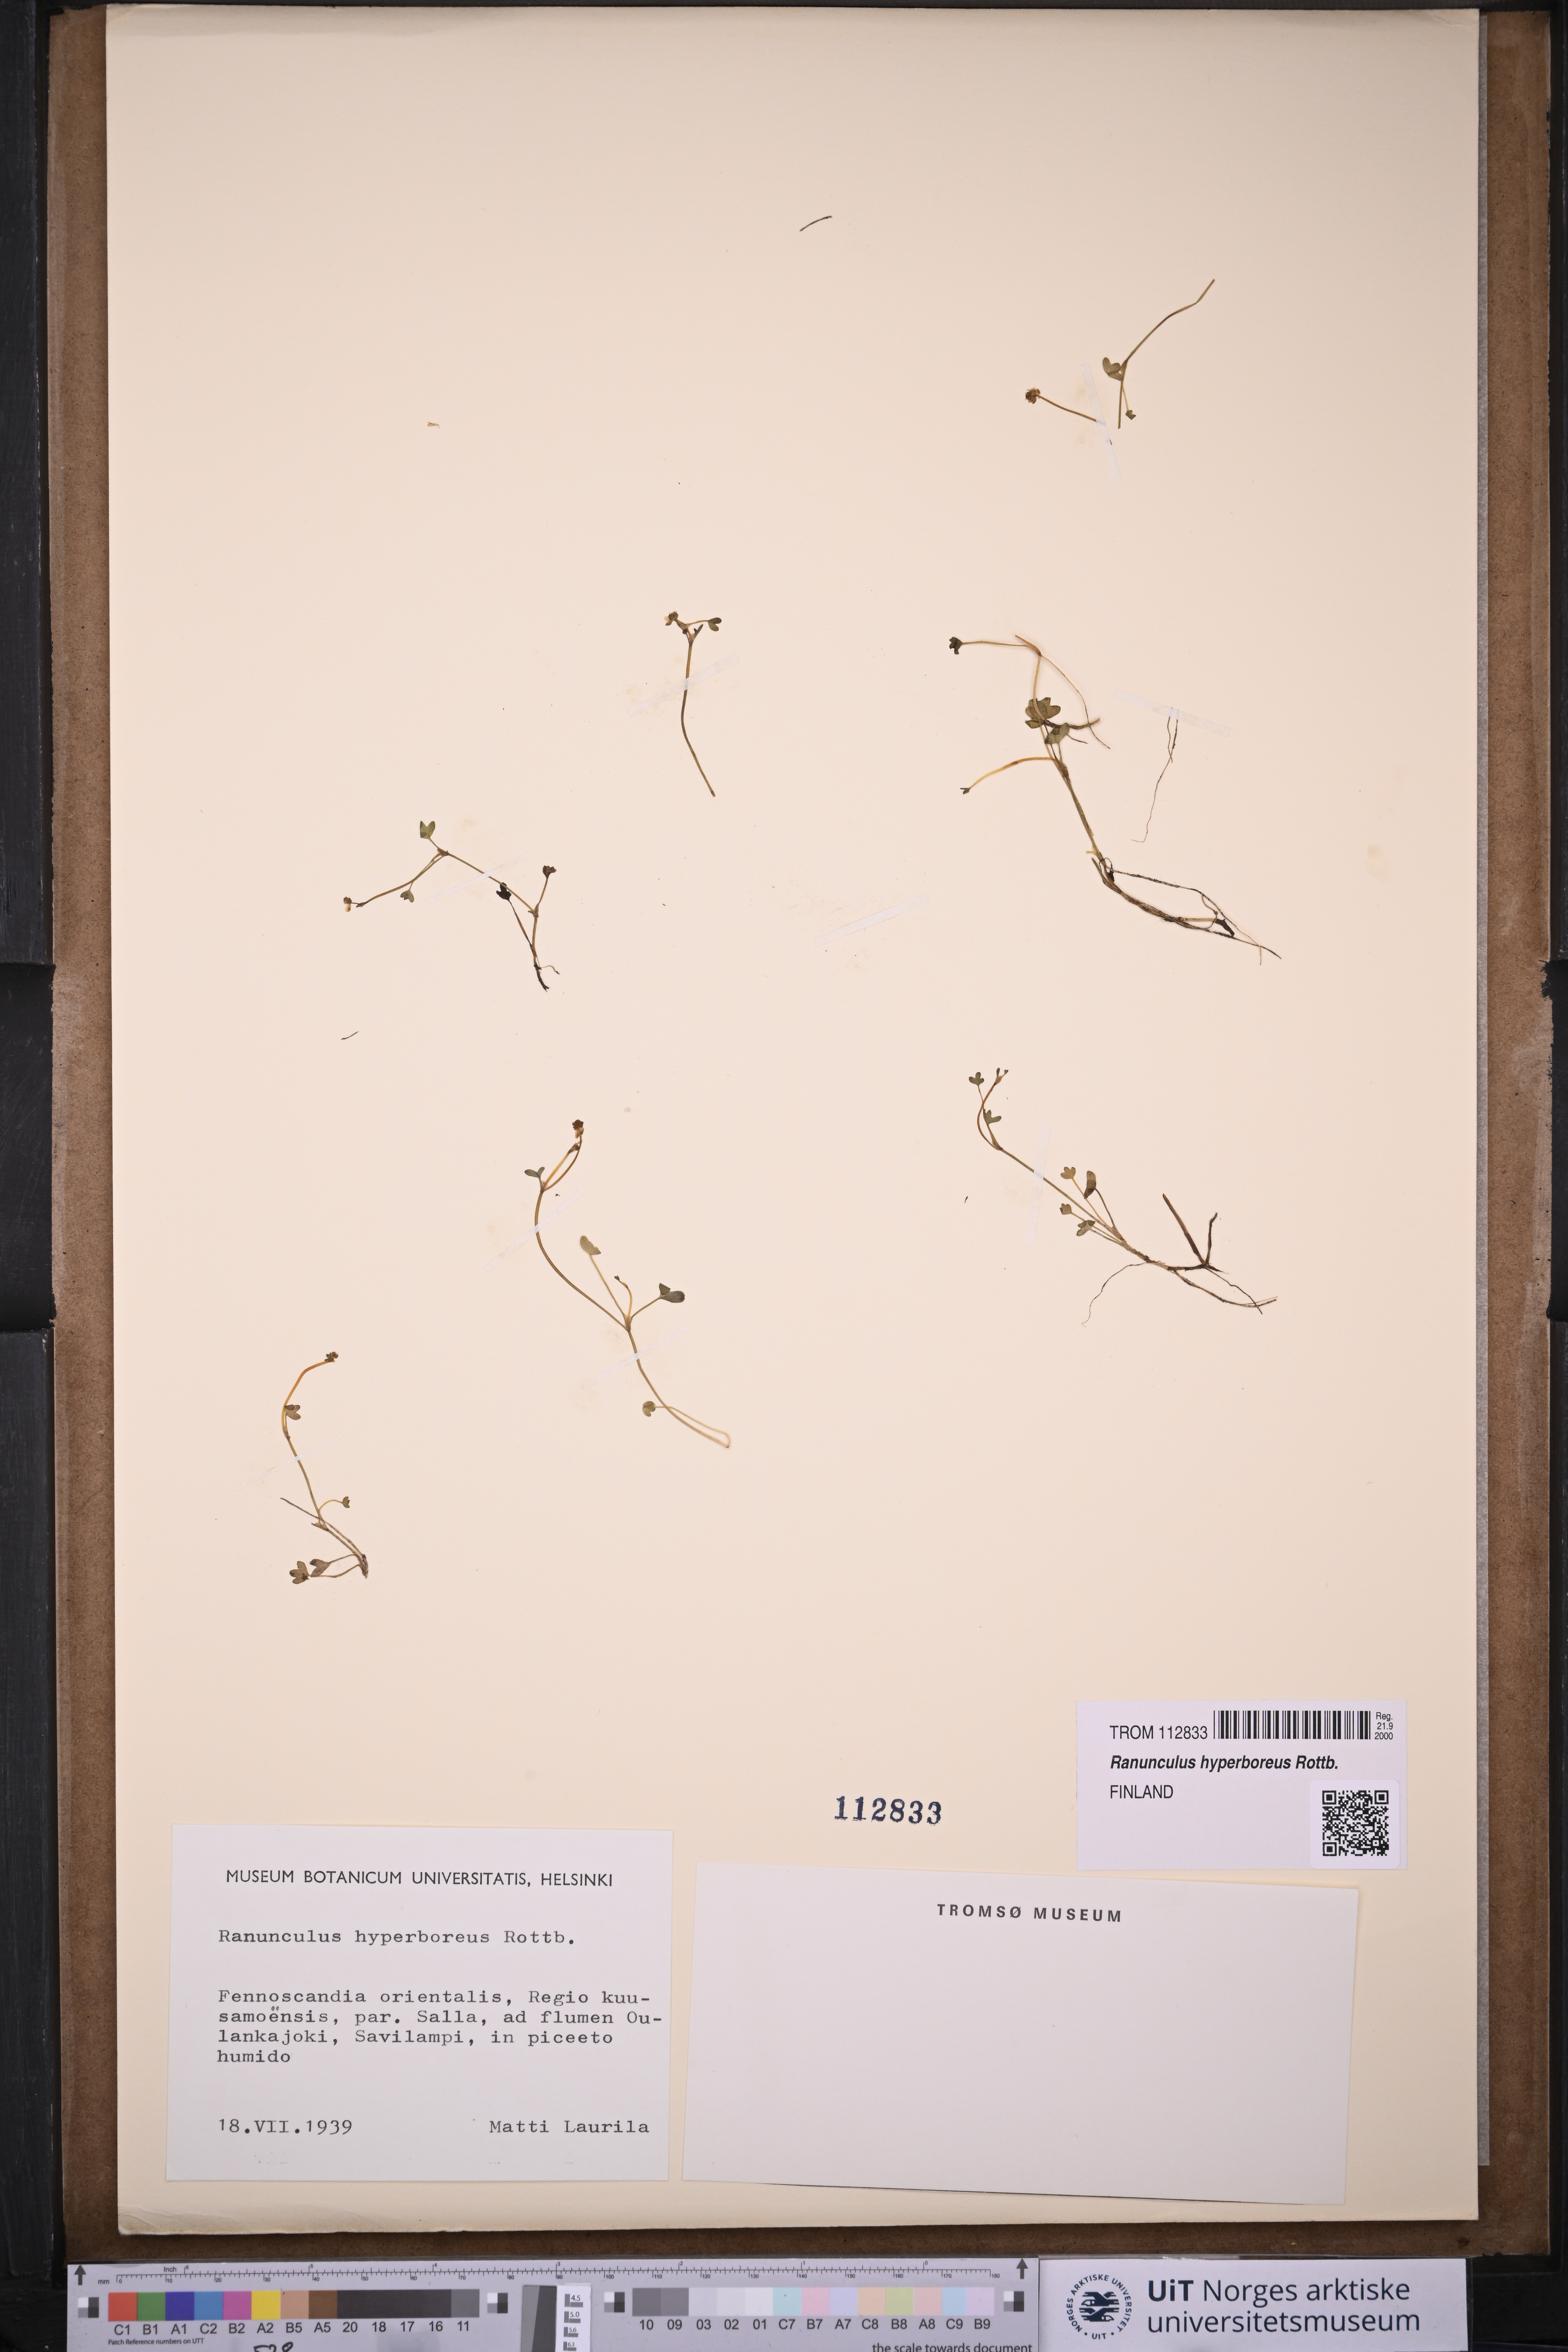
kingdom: Plantae
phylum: Tracheophyta
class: Magnoliopsida
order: Ranunculales
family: Ranunculaceae
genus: Ranunculus
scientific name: Ranunculus hyperboreus
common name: Arctic buttercup
